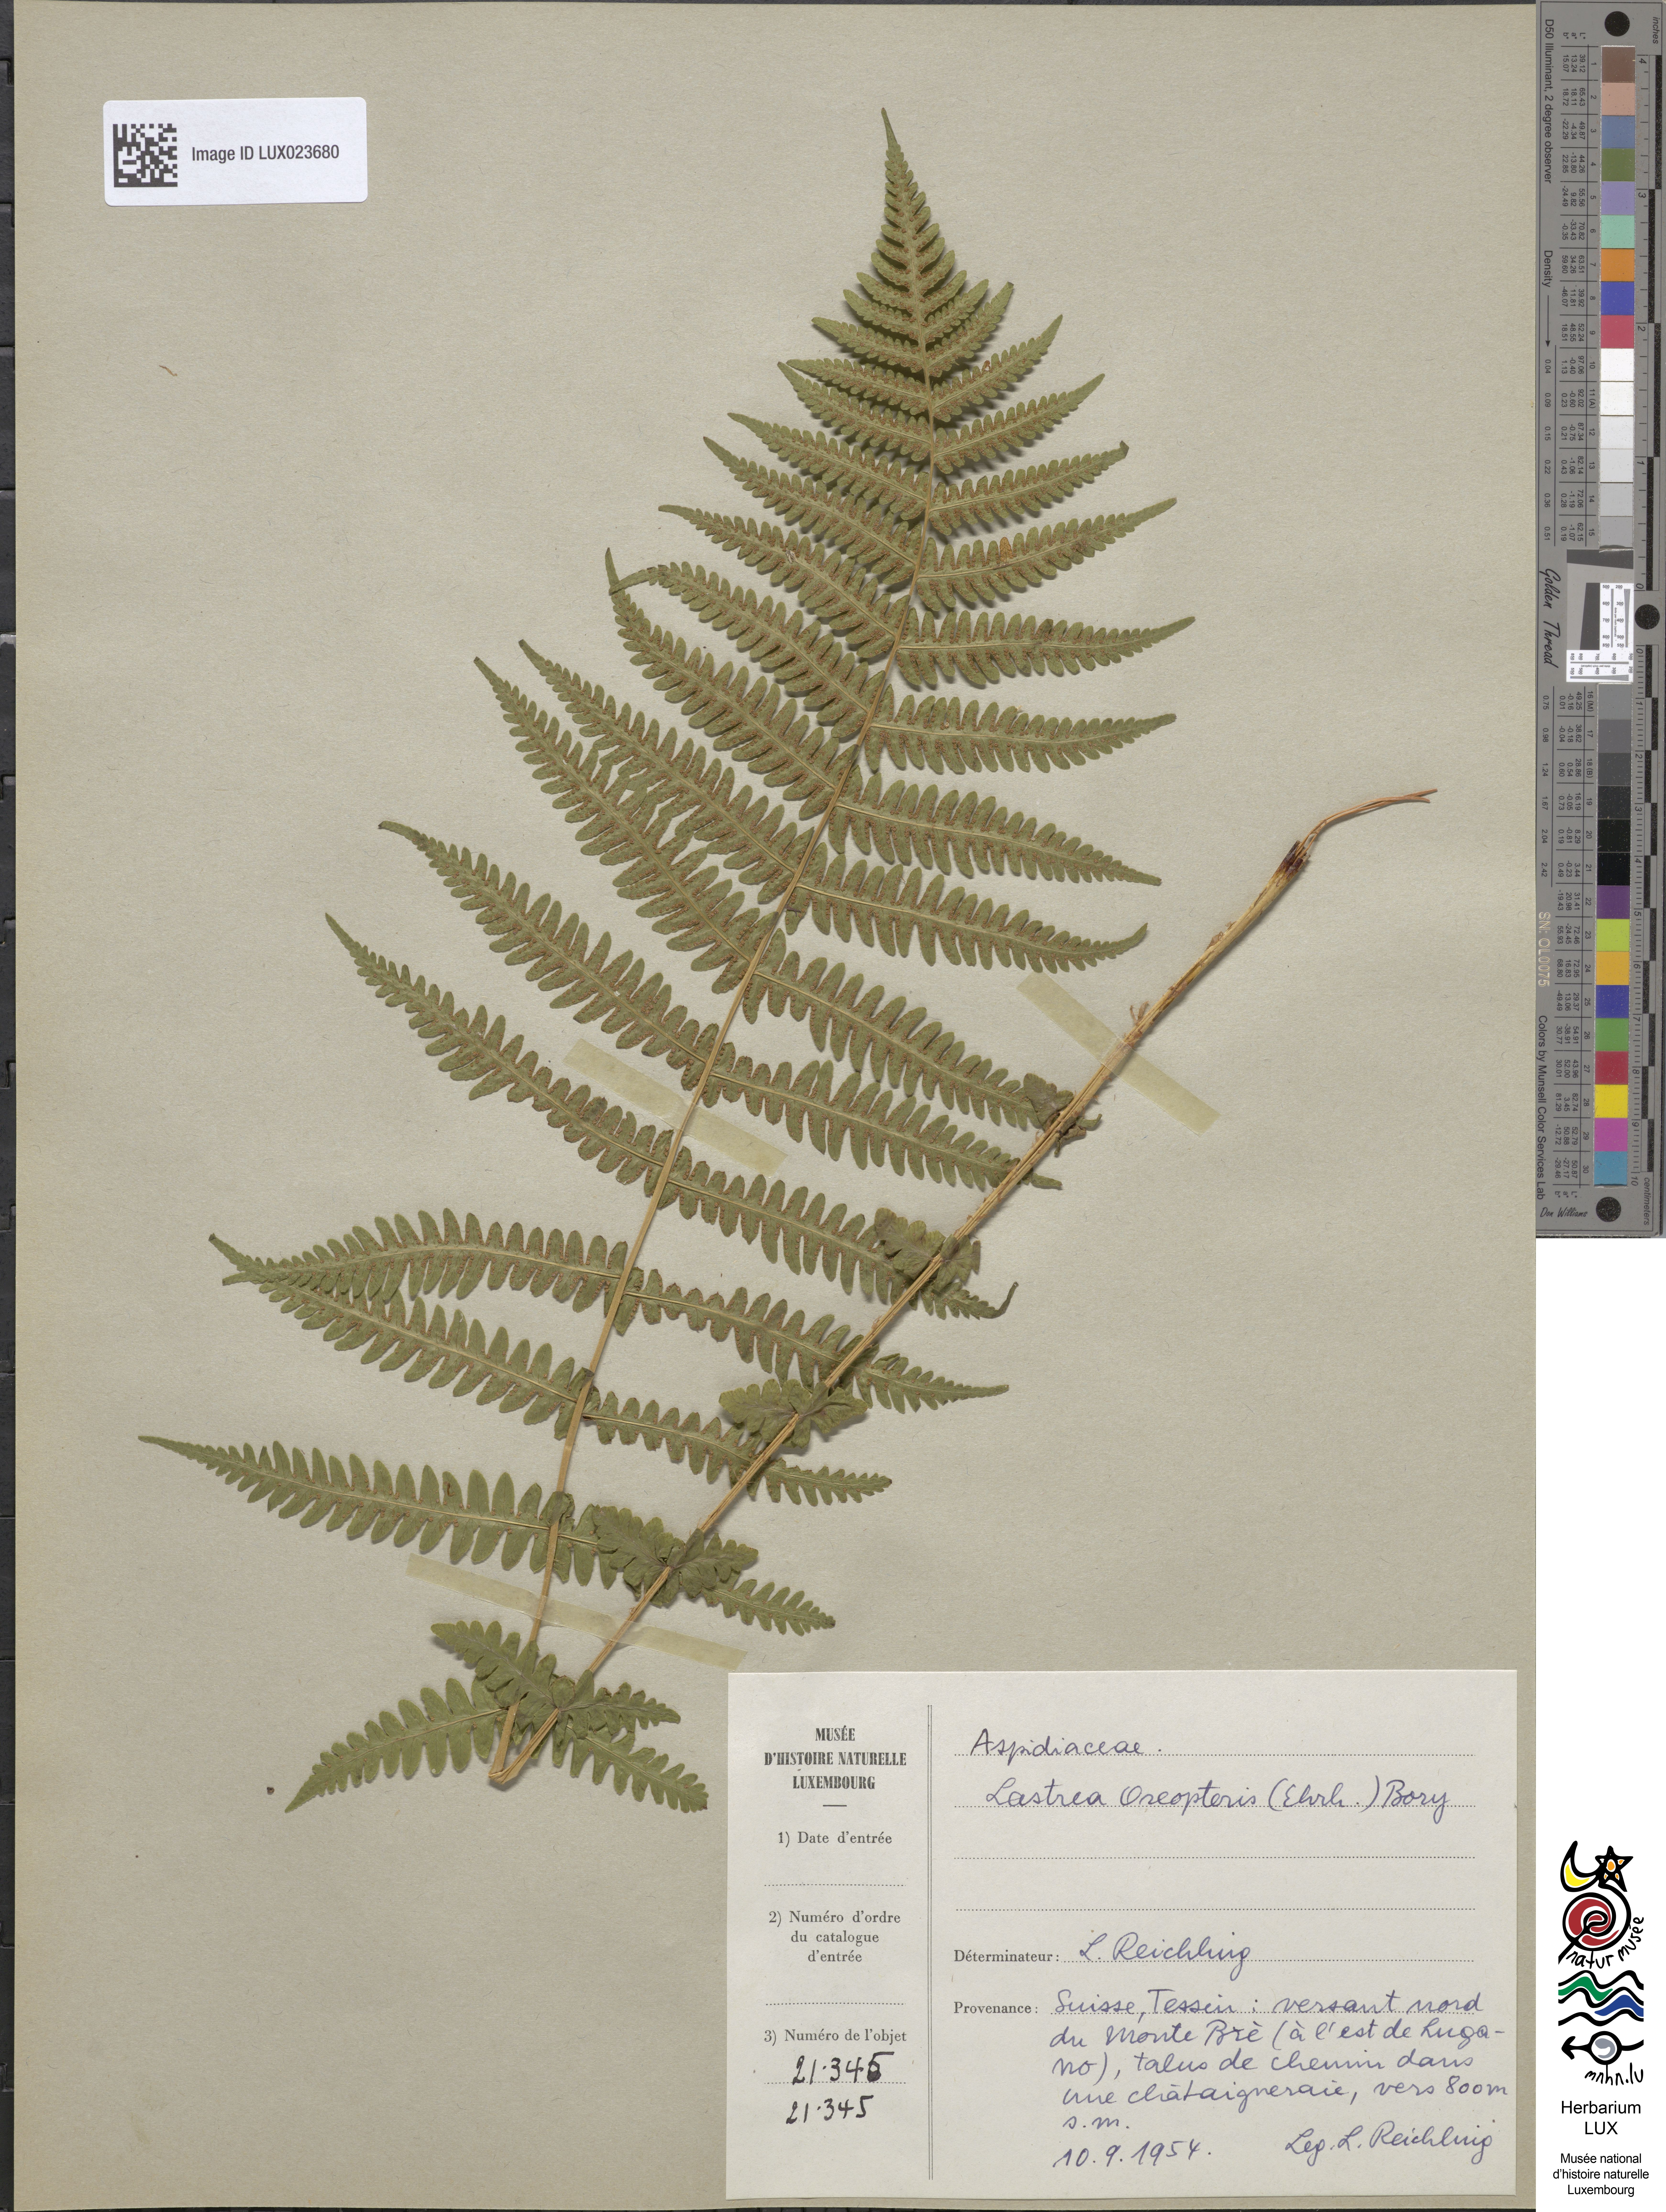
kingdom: Plantae
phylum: Tracheophyta
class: Polypodiopsida
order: Polypodiales
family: Thelypteridaceae
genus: Oreopteris
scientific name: Oreopteris limbosperma
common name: Lemon-scented fern
